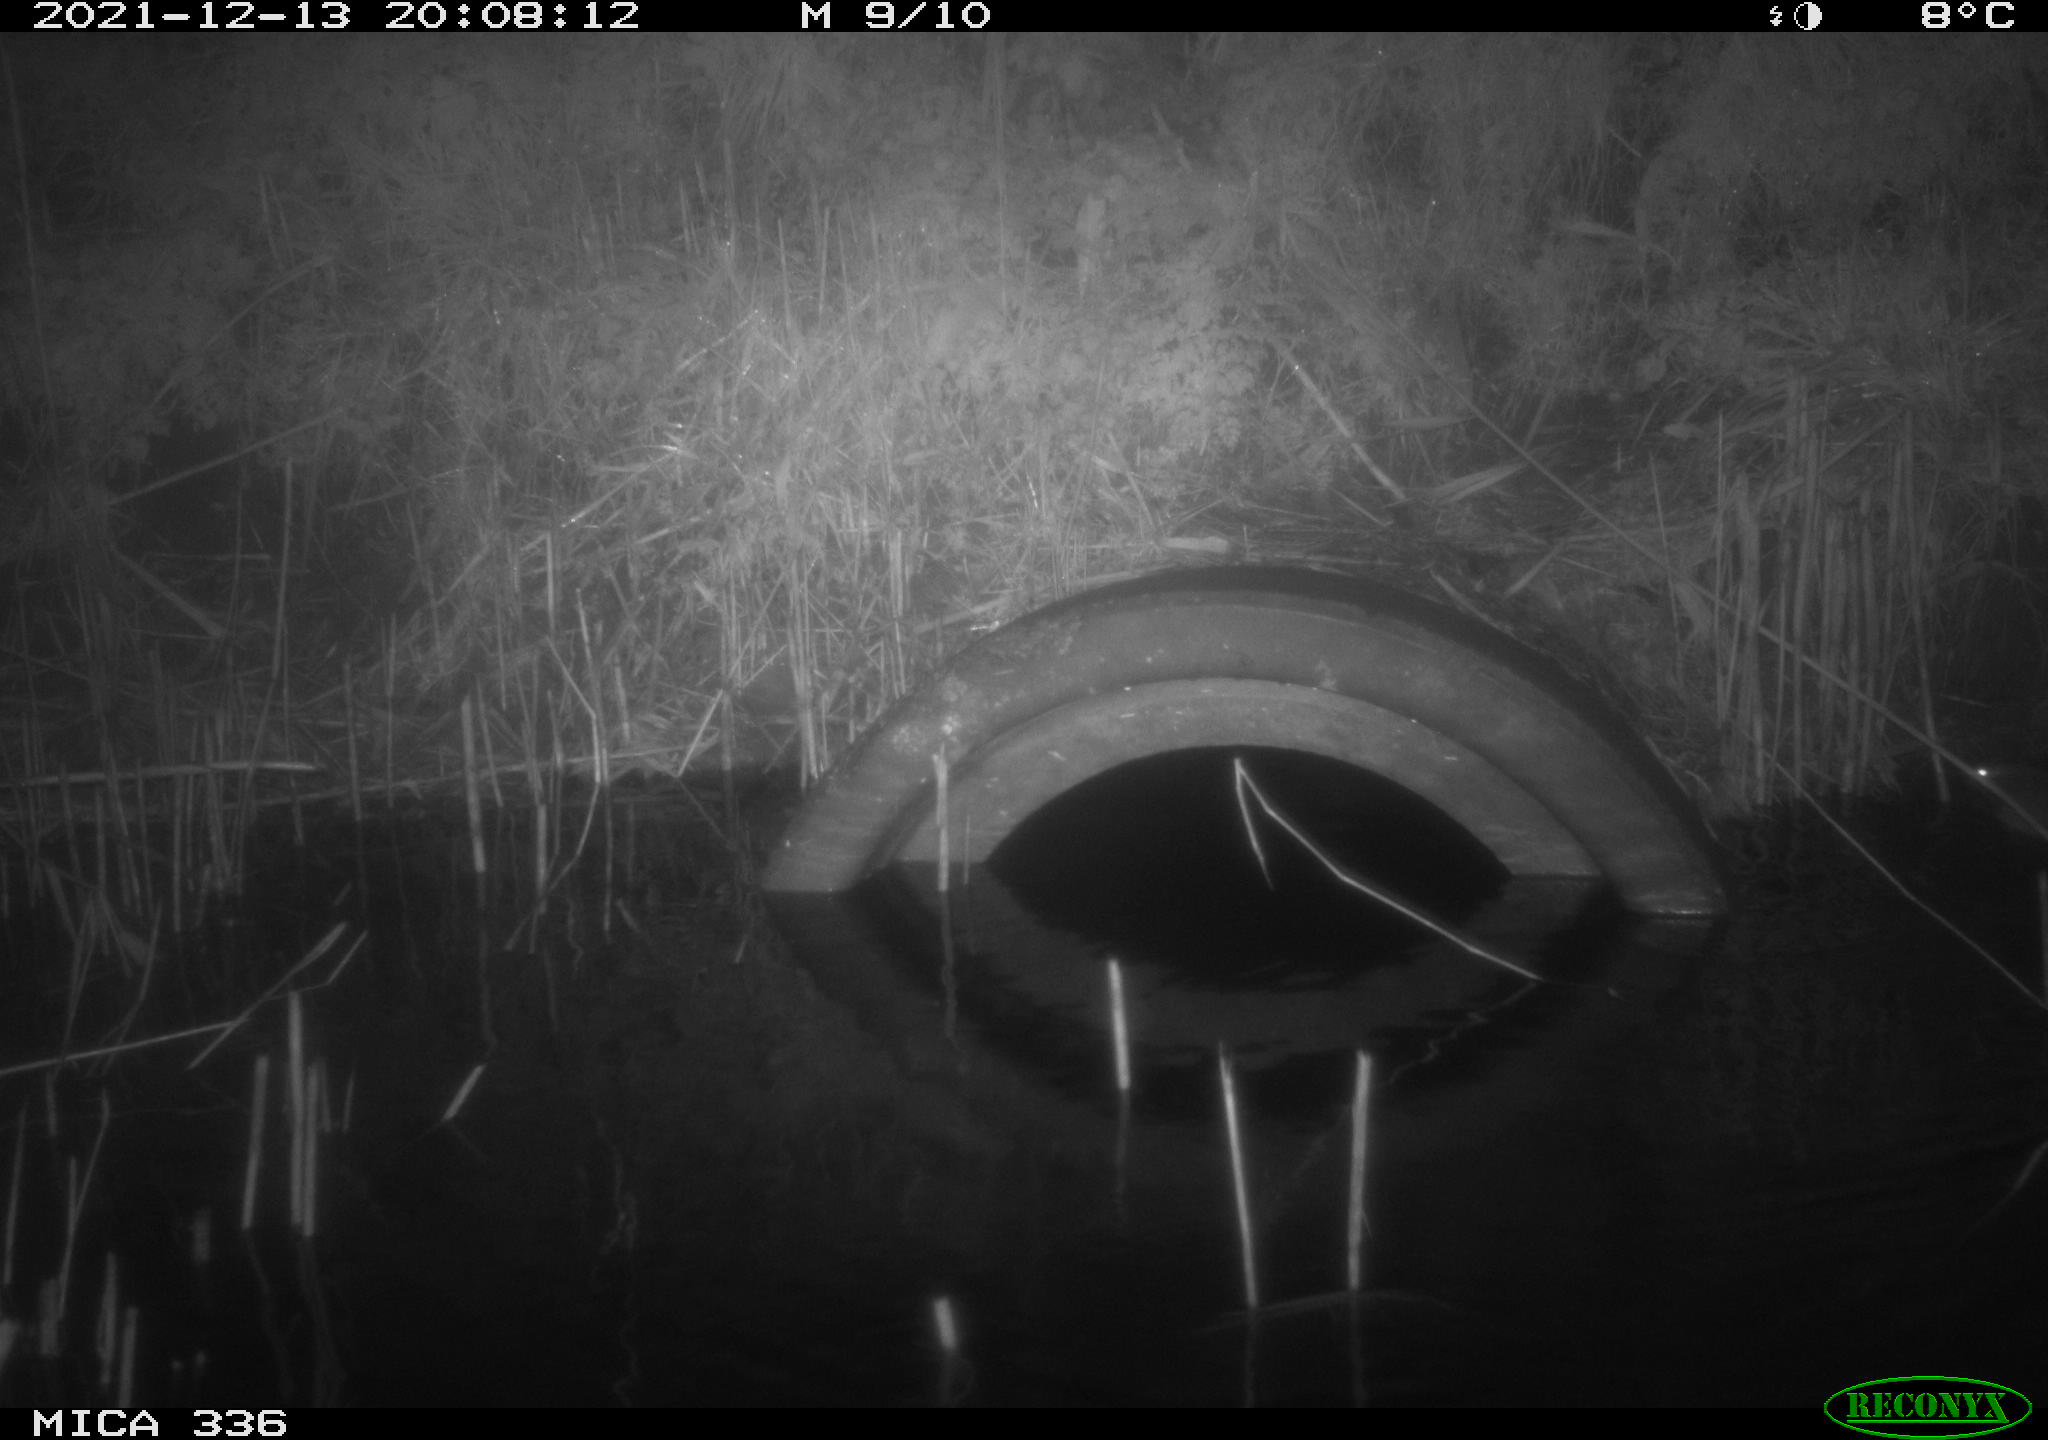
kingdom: Animalia
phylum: Chordata
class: Mammalia
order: Rodentia
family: Muridae
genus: Rattus
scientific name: Rattus norvegicus
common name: Brown rat
